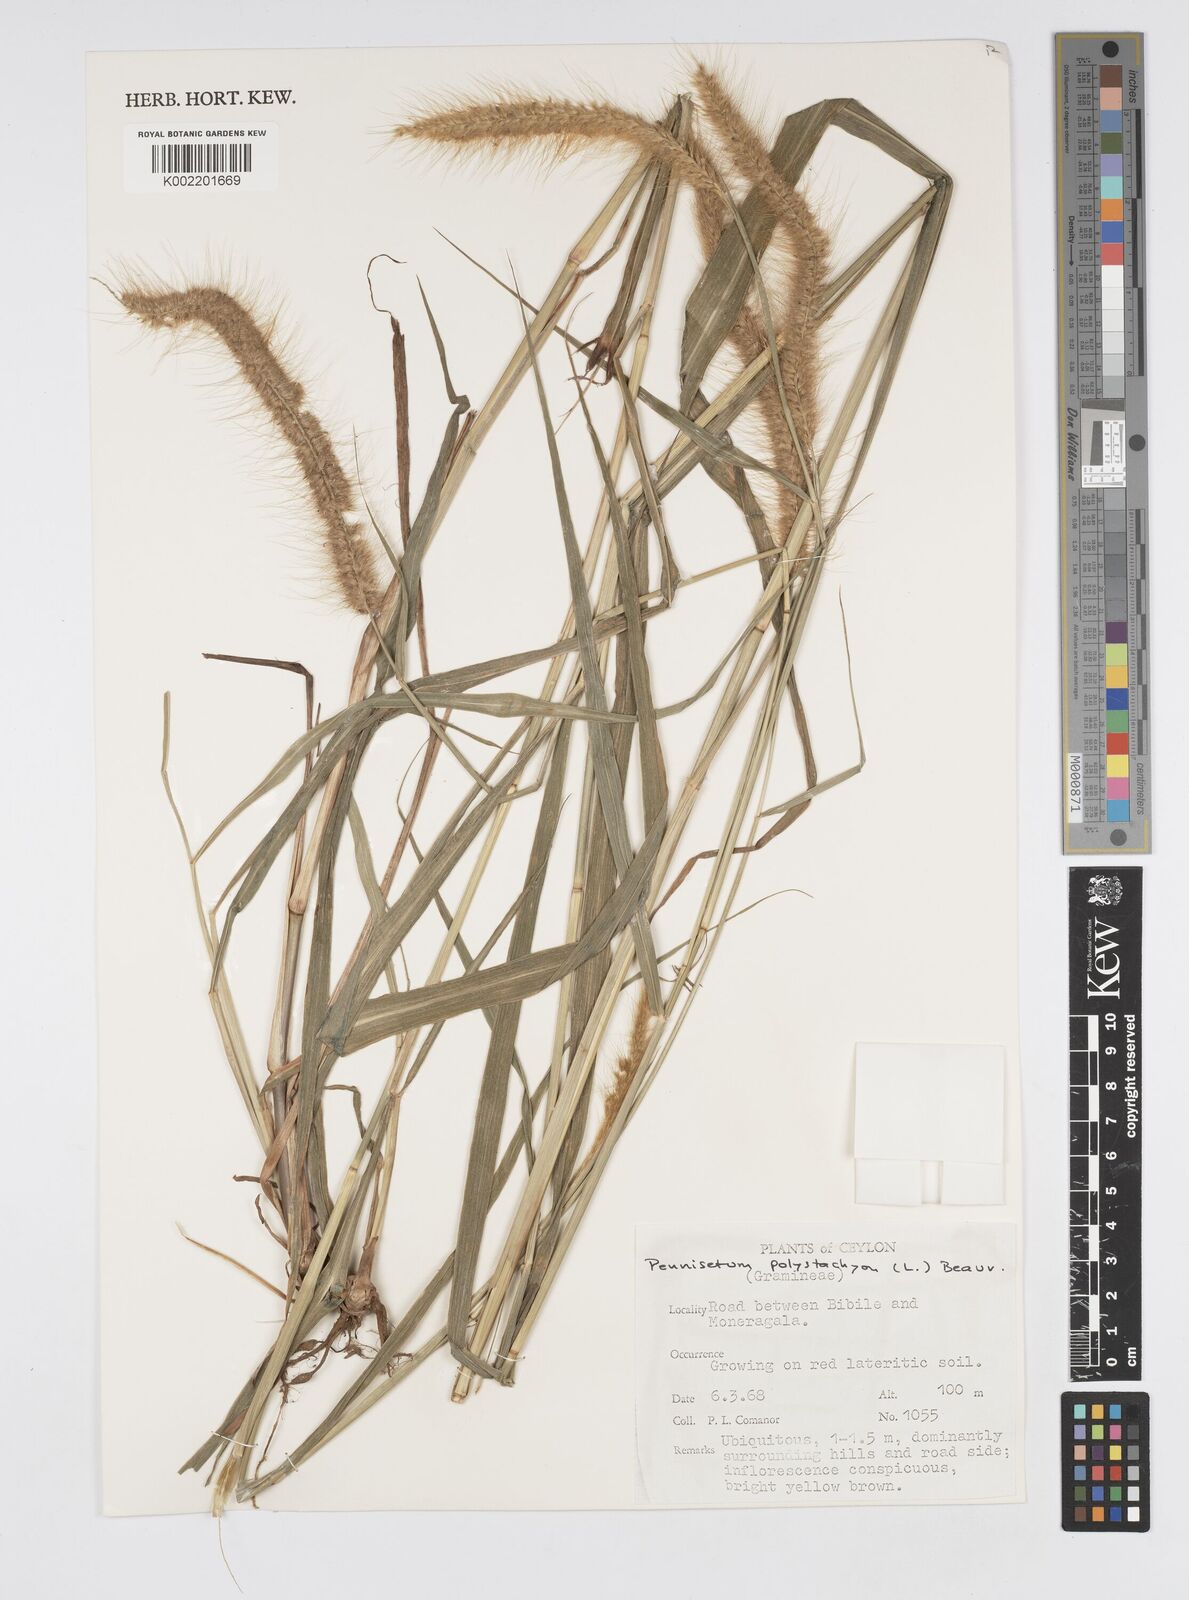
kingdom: Plantae
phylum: Tracheophyta
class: Liliopsida
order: Poales
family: Poaceae
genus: Setaria
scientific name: Setaria parviflora
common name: Knotroot bristle-grass
